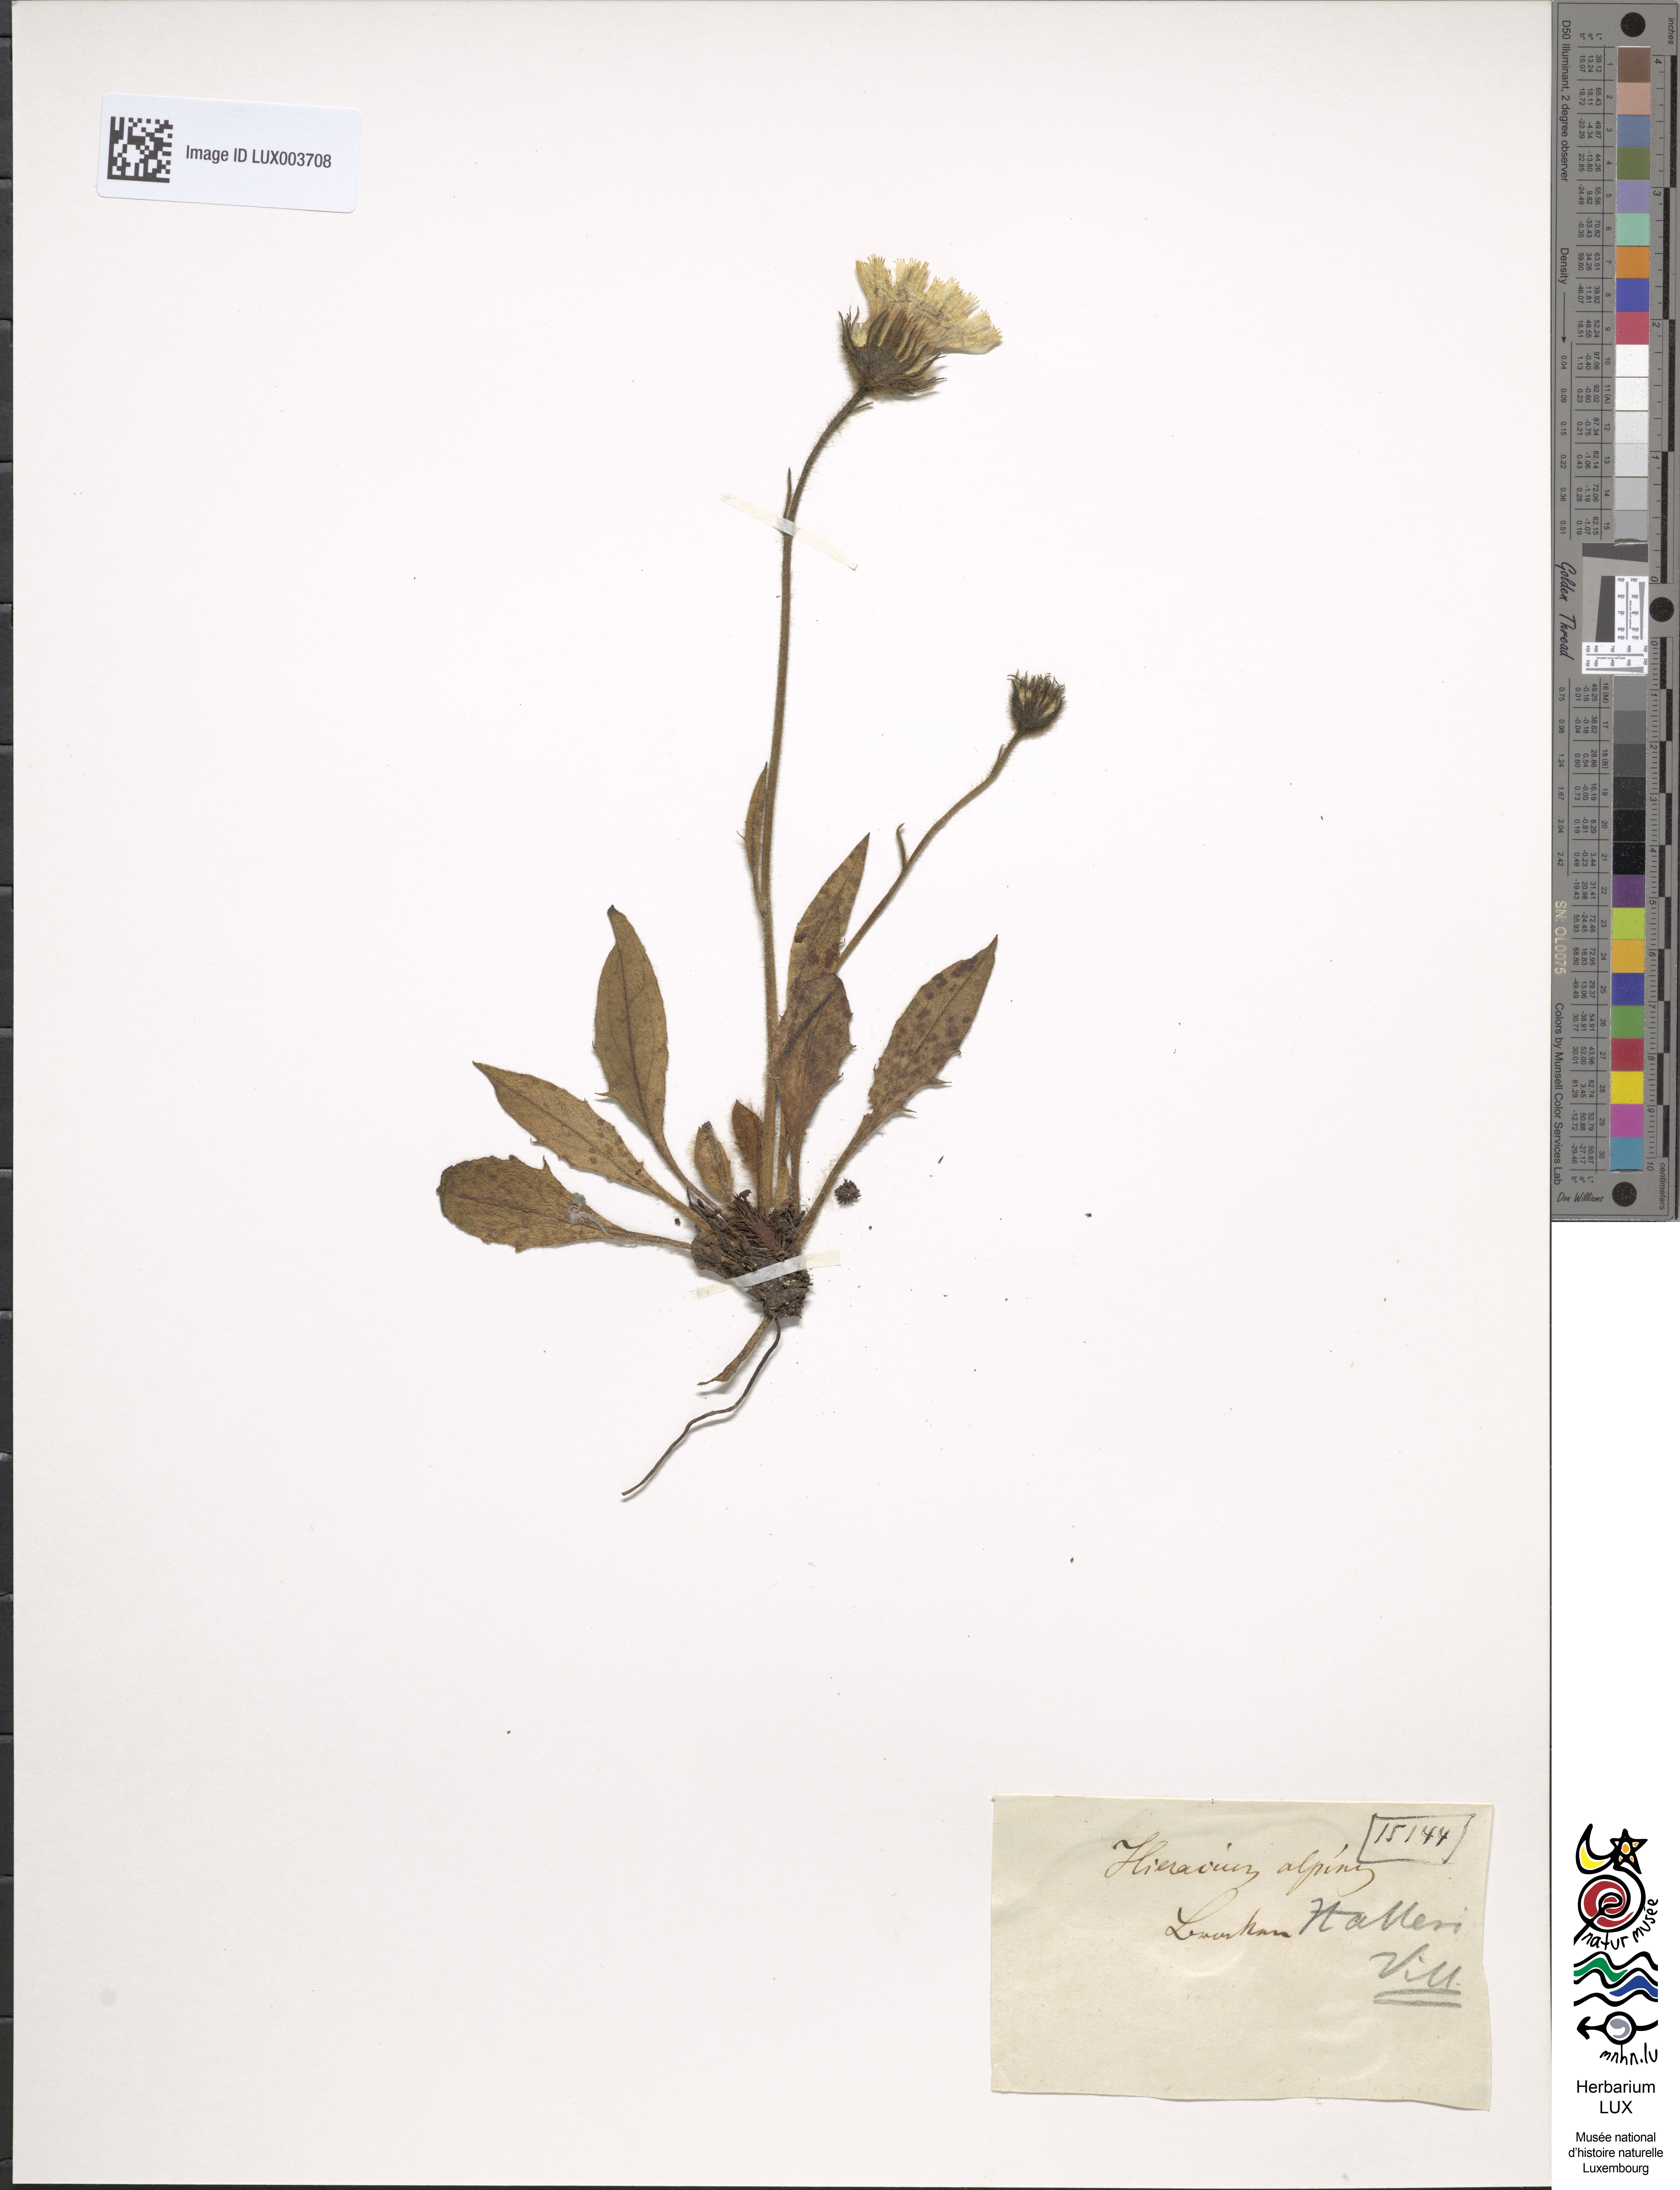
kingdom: Plantae
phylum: Tracheophyta
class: Magnoliopsida
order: Asterales
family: Asteraceae
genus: Hieracium
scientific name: Hieracium alpinum
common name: Alpine hawkweed
